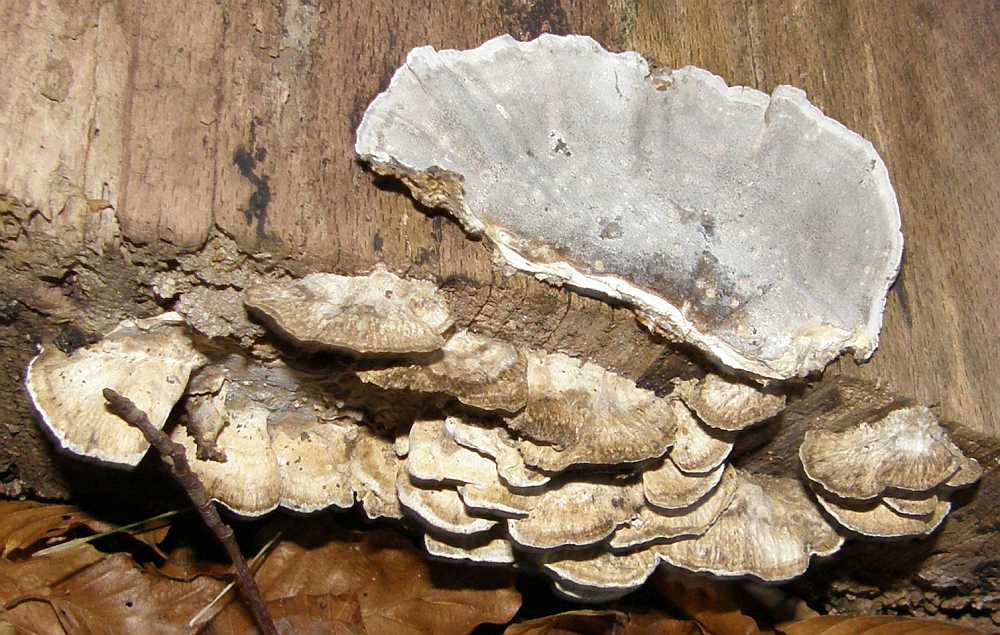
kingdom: Fungi
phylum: Basidiomycota
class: Agaricomycetes
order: Polyporales
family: Phanerochaetaceae
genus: Bjerkandera
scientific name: Bjerkandera adusta
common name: sveden sodporesvamp
